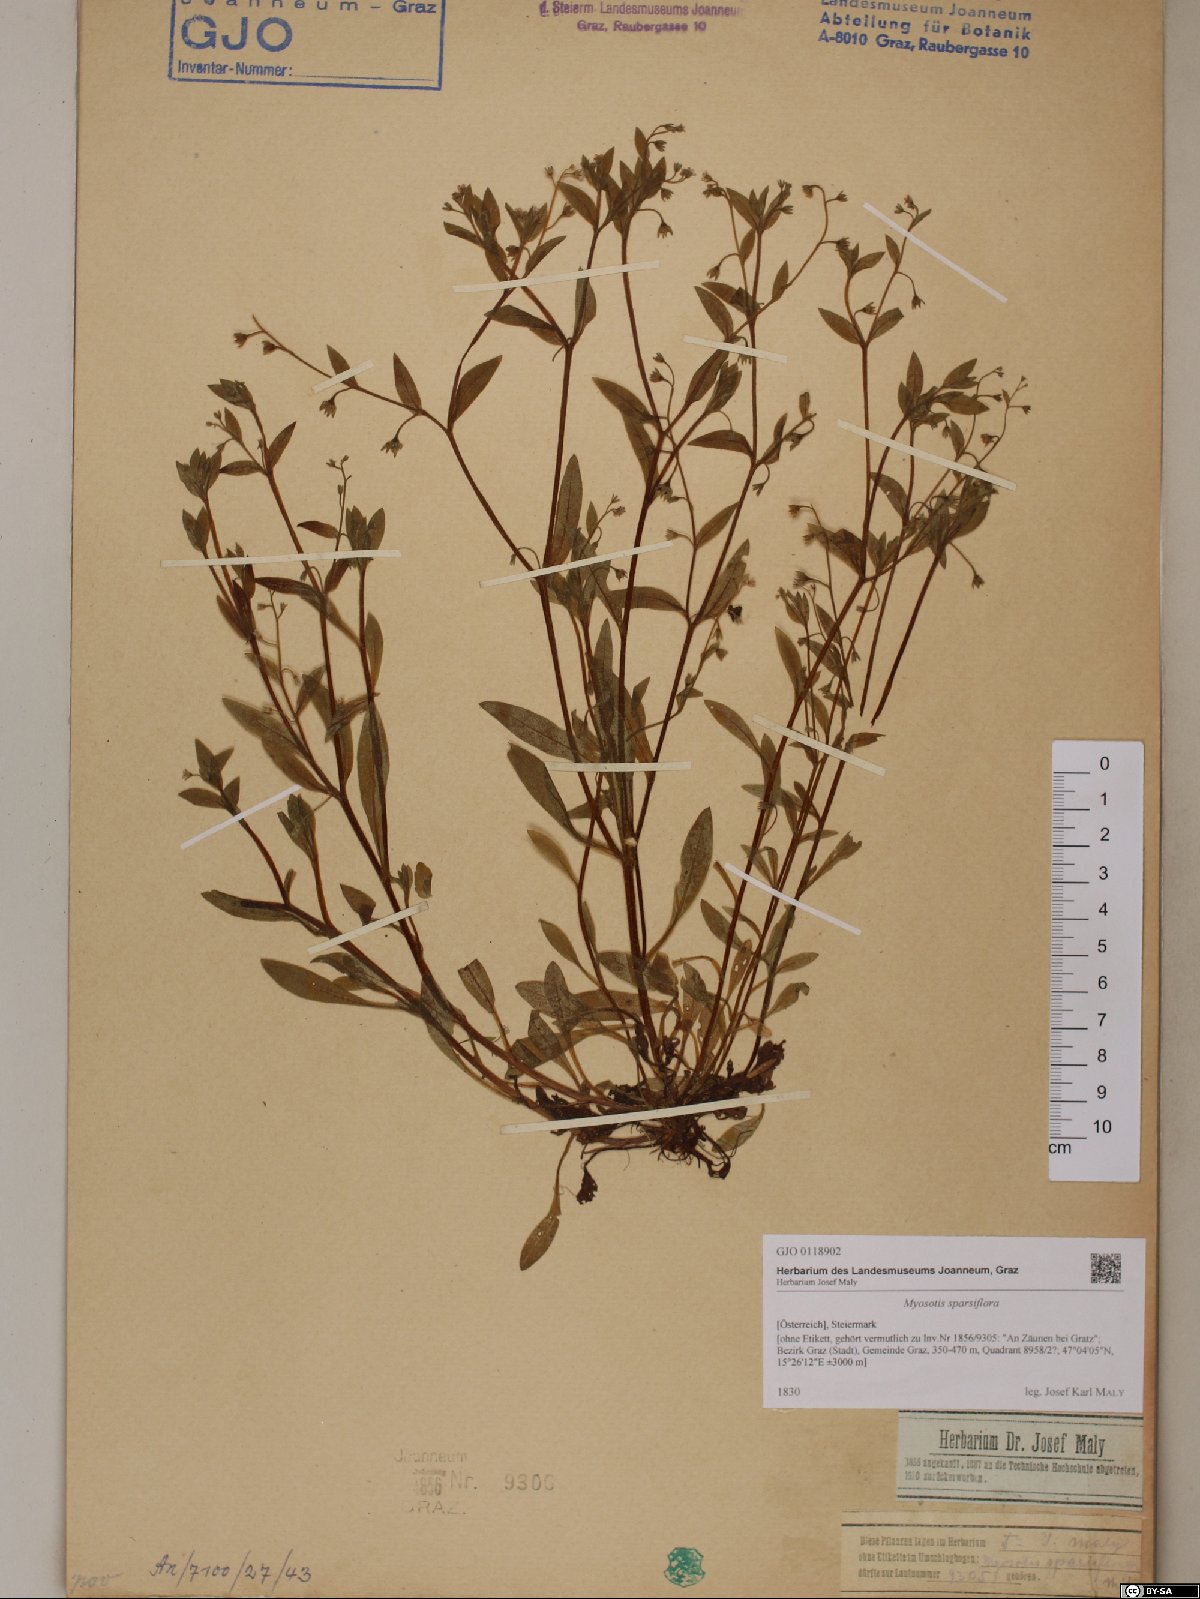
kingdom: Plantae
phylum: Tracheophyta
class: Magnoliopsida
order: Boraginales
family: Boraginaceae
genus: Myosotis
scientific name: Myosotis sparsiflora
